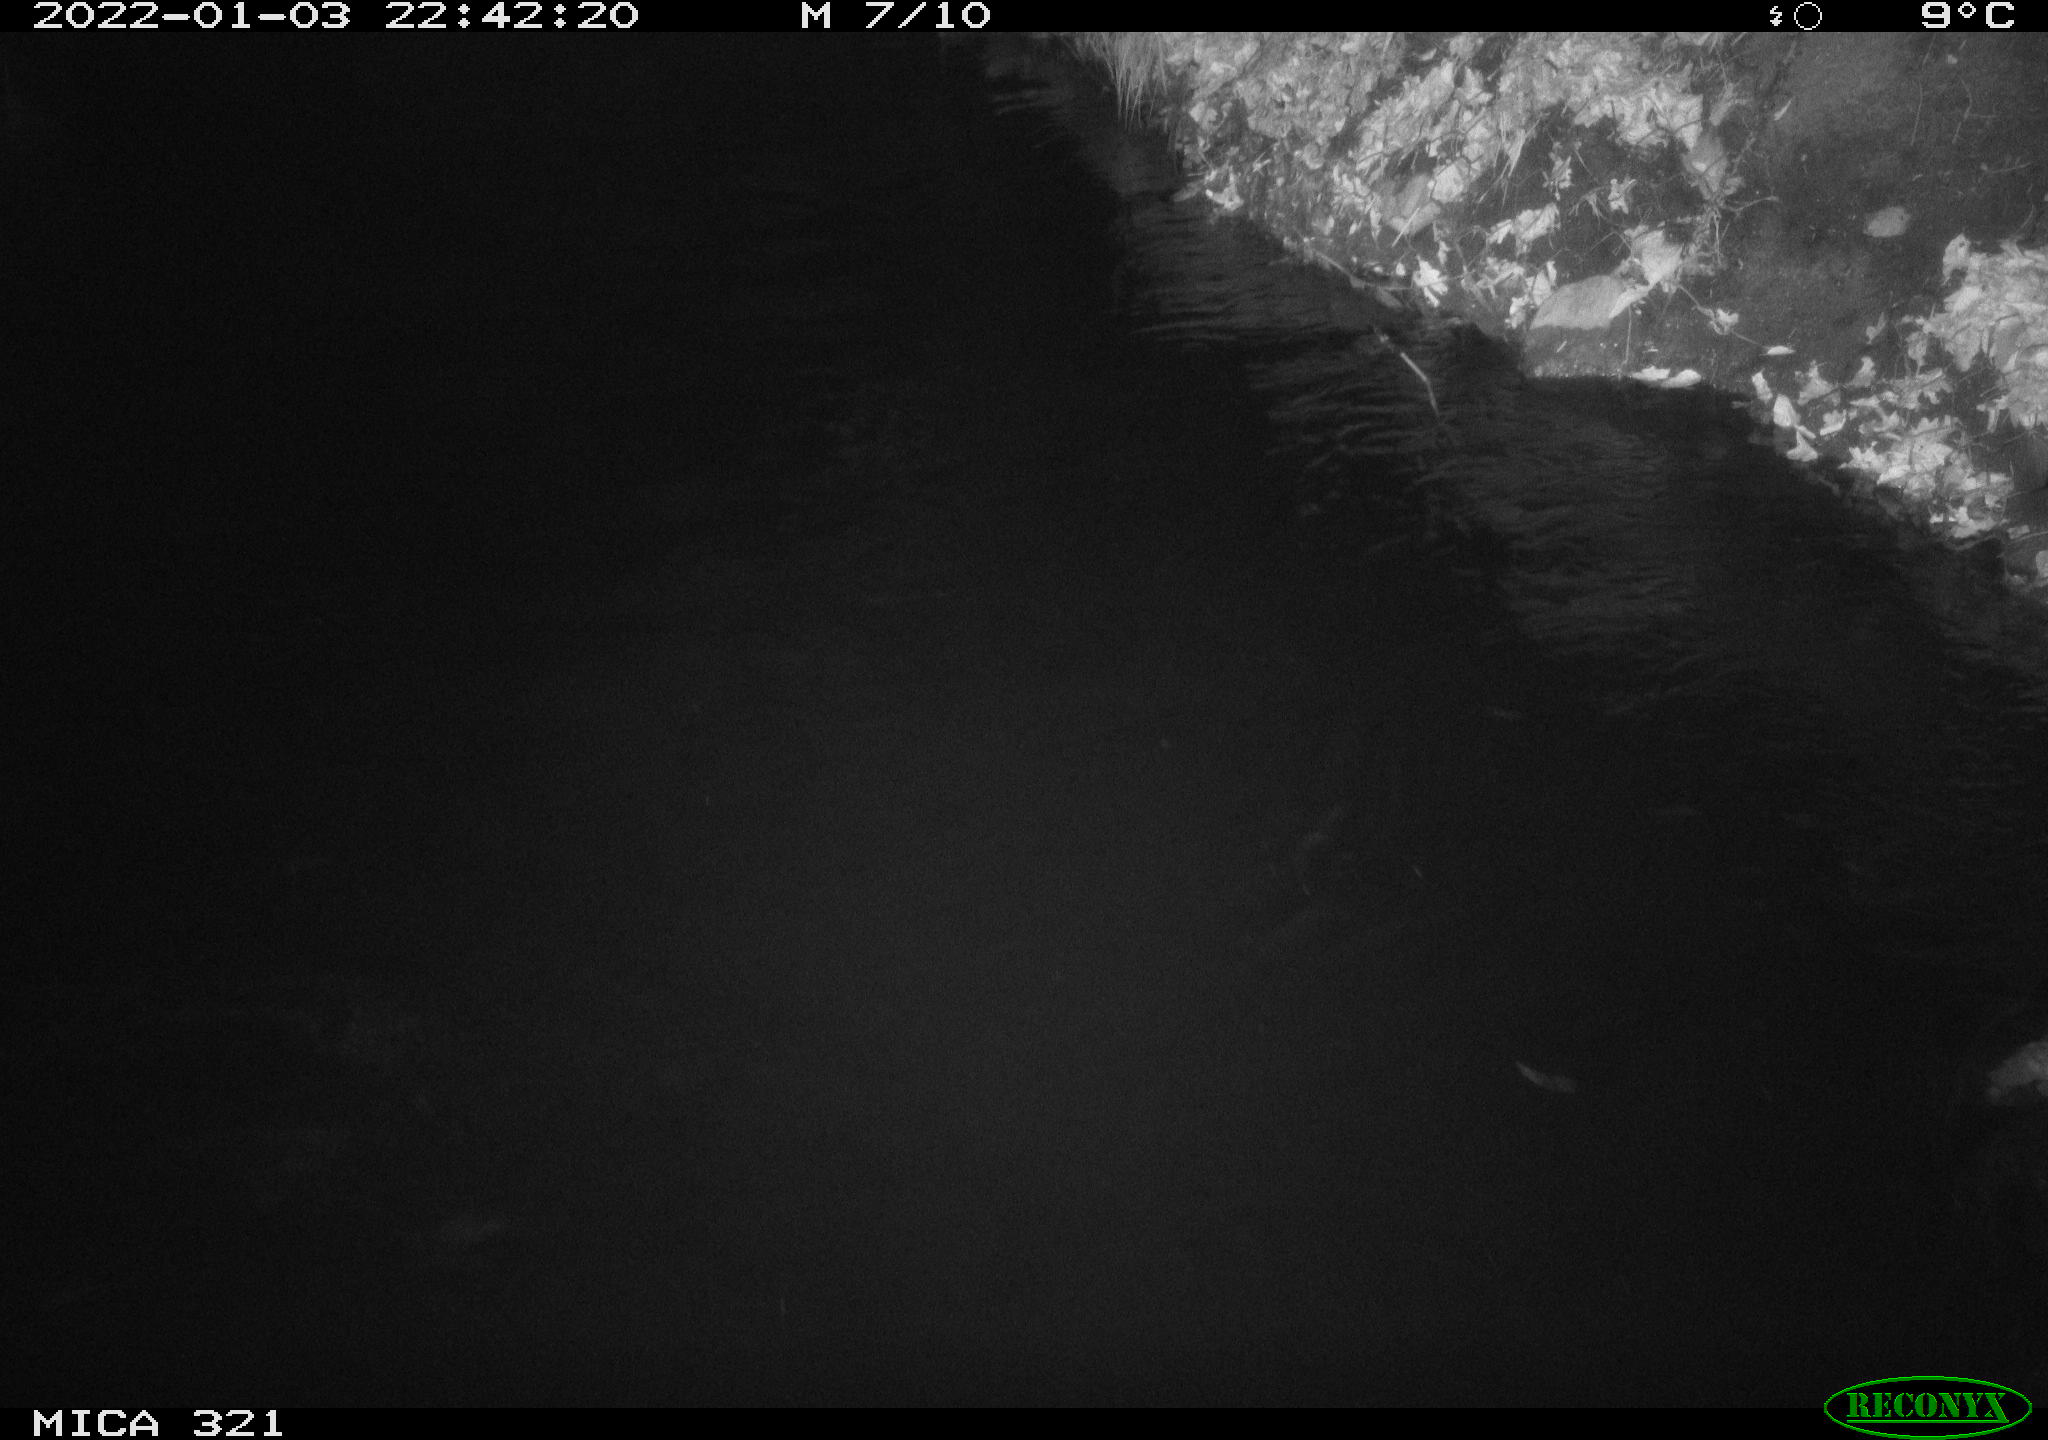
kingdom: Animalia
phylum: Chordata
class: Aves
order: Anseriformes
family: Anatidae
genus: Anas
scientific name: Anas platyrhynchos
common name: Mallard
